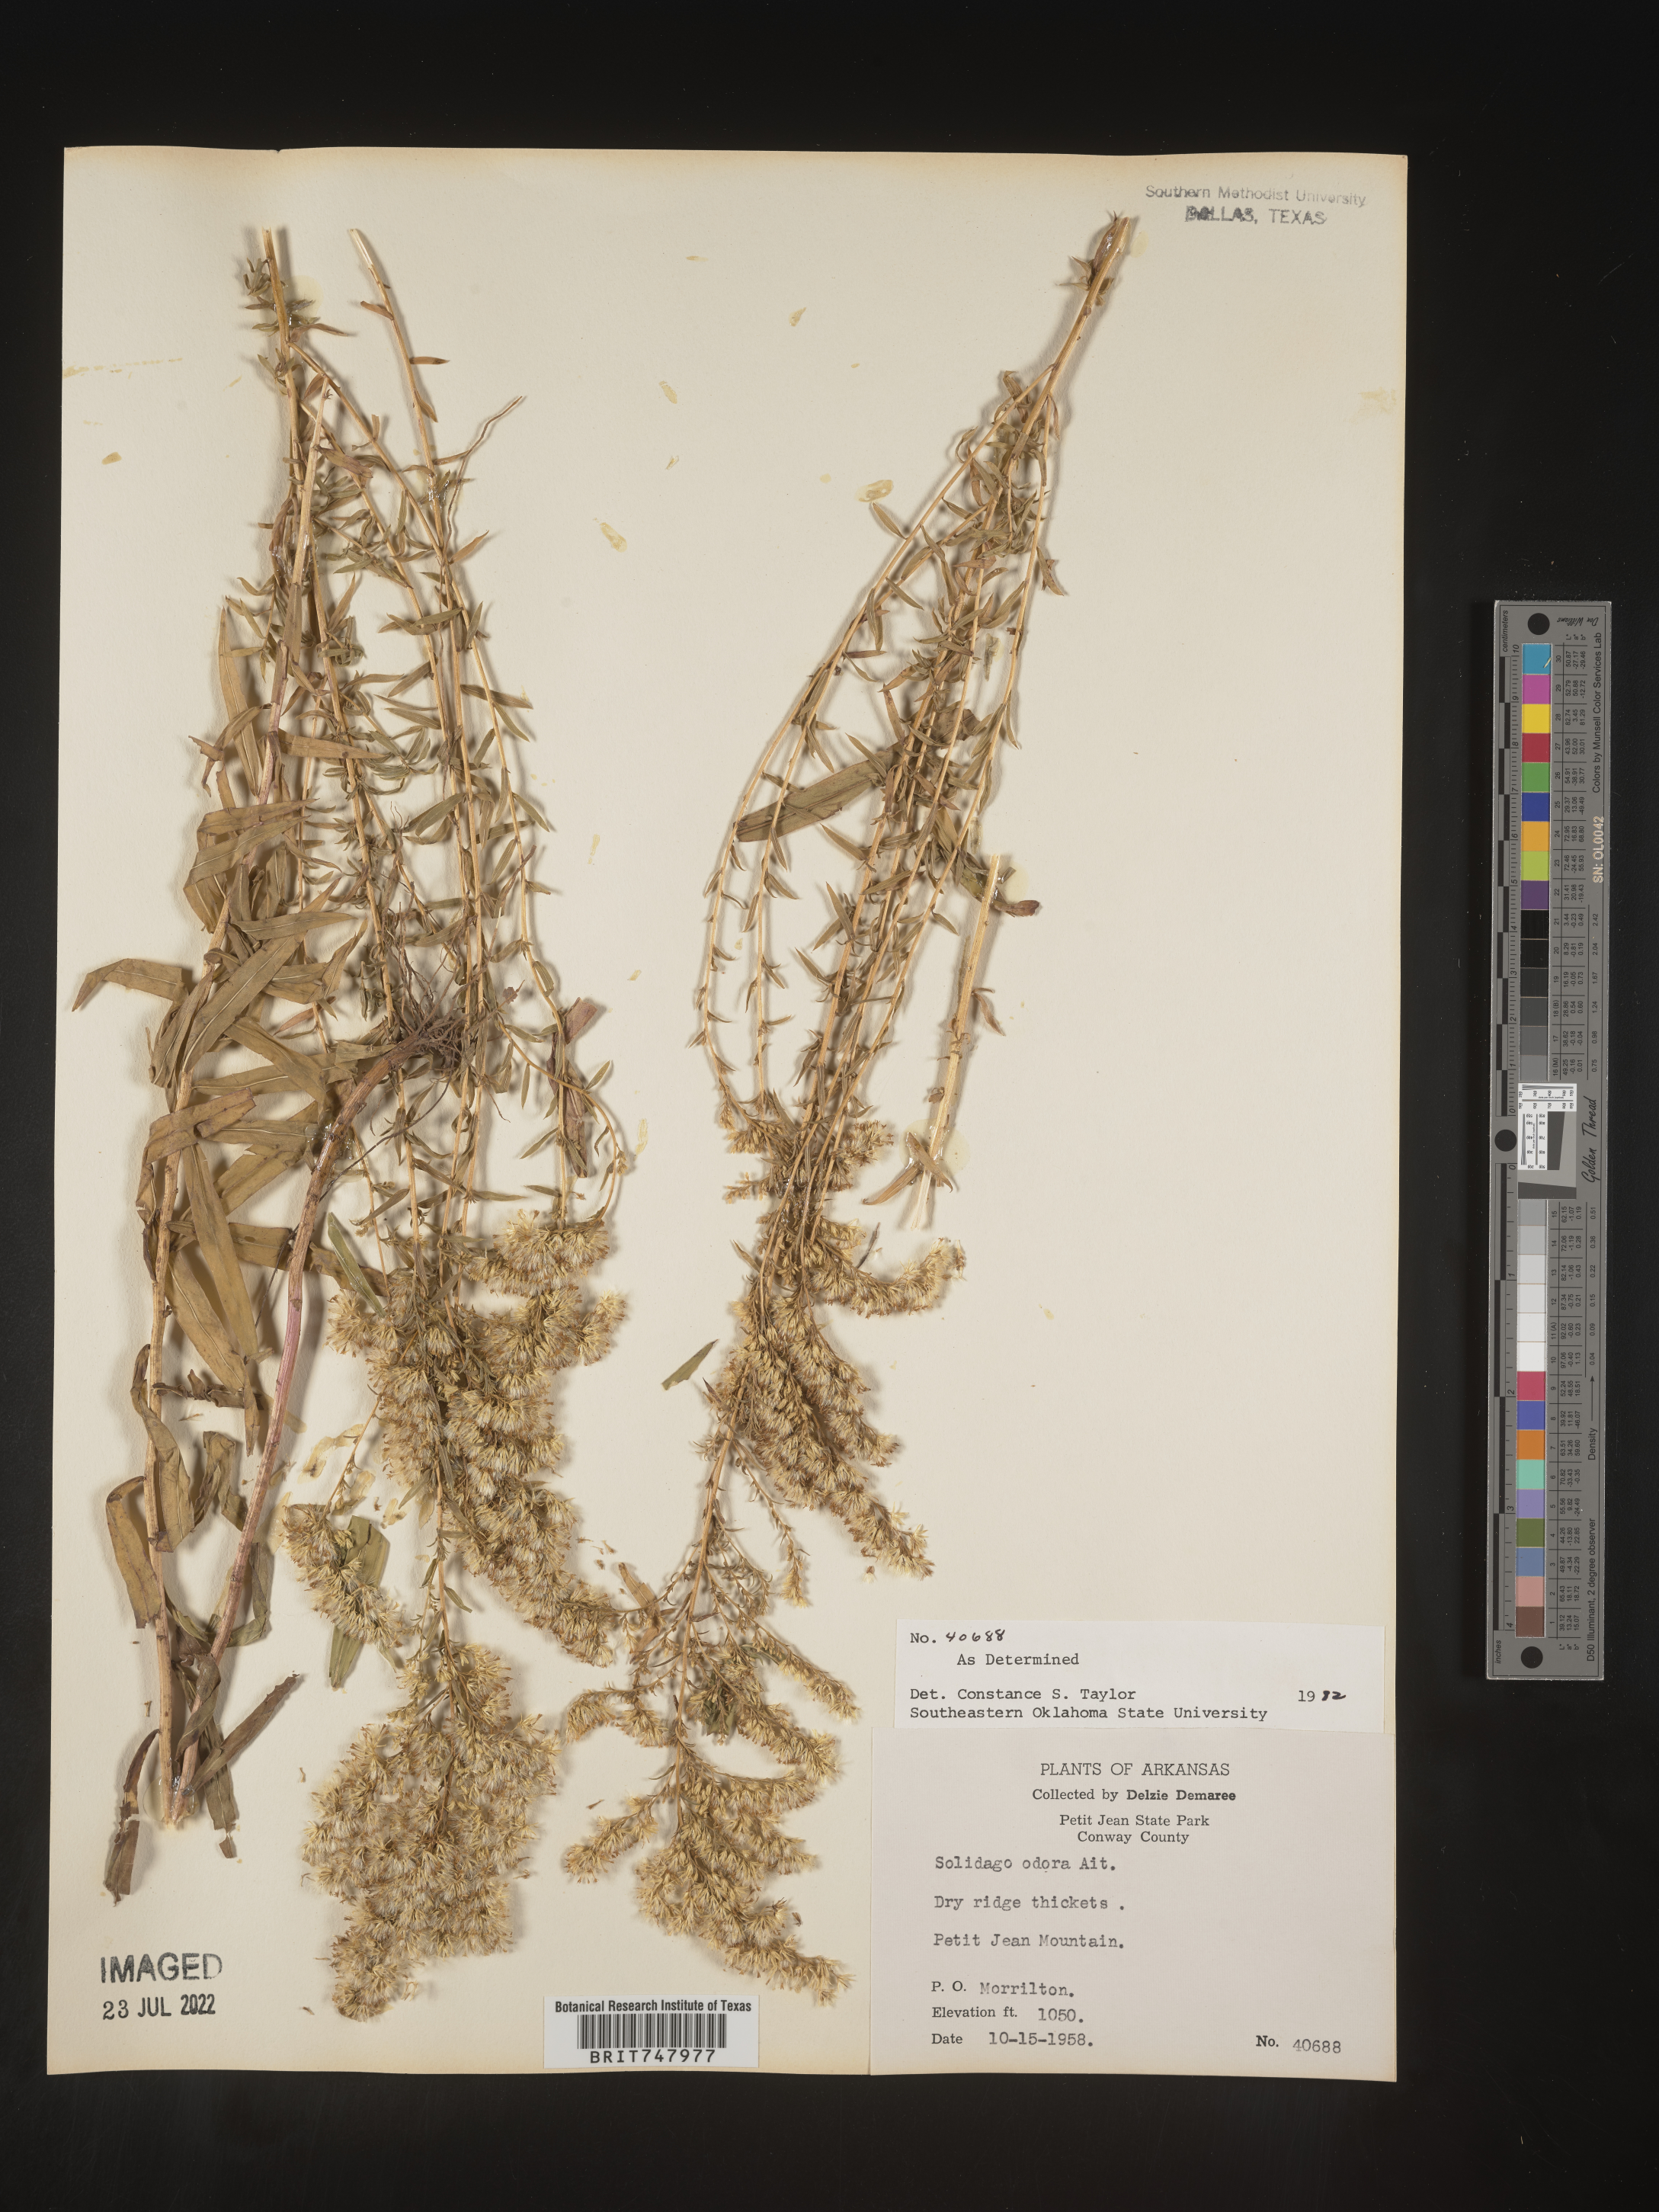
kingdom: Plantae
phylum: Tracheophyta
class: Magnoliopsida
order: Asterales
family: Asteraceae
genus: Solidago
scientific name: Solidago odora
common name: Anise-scented goldenrod
